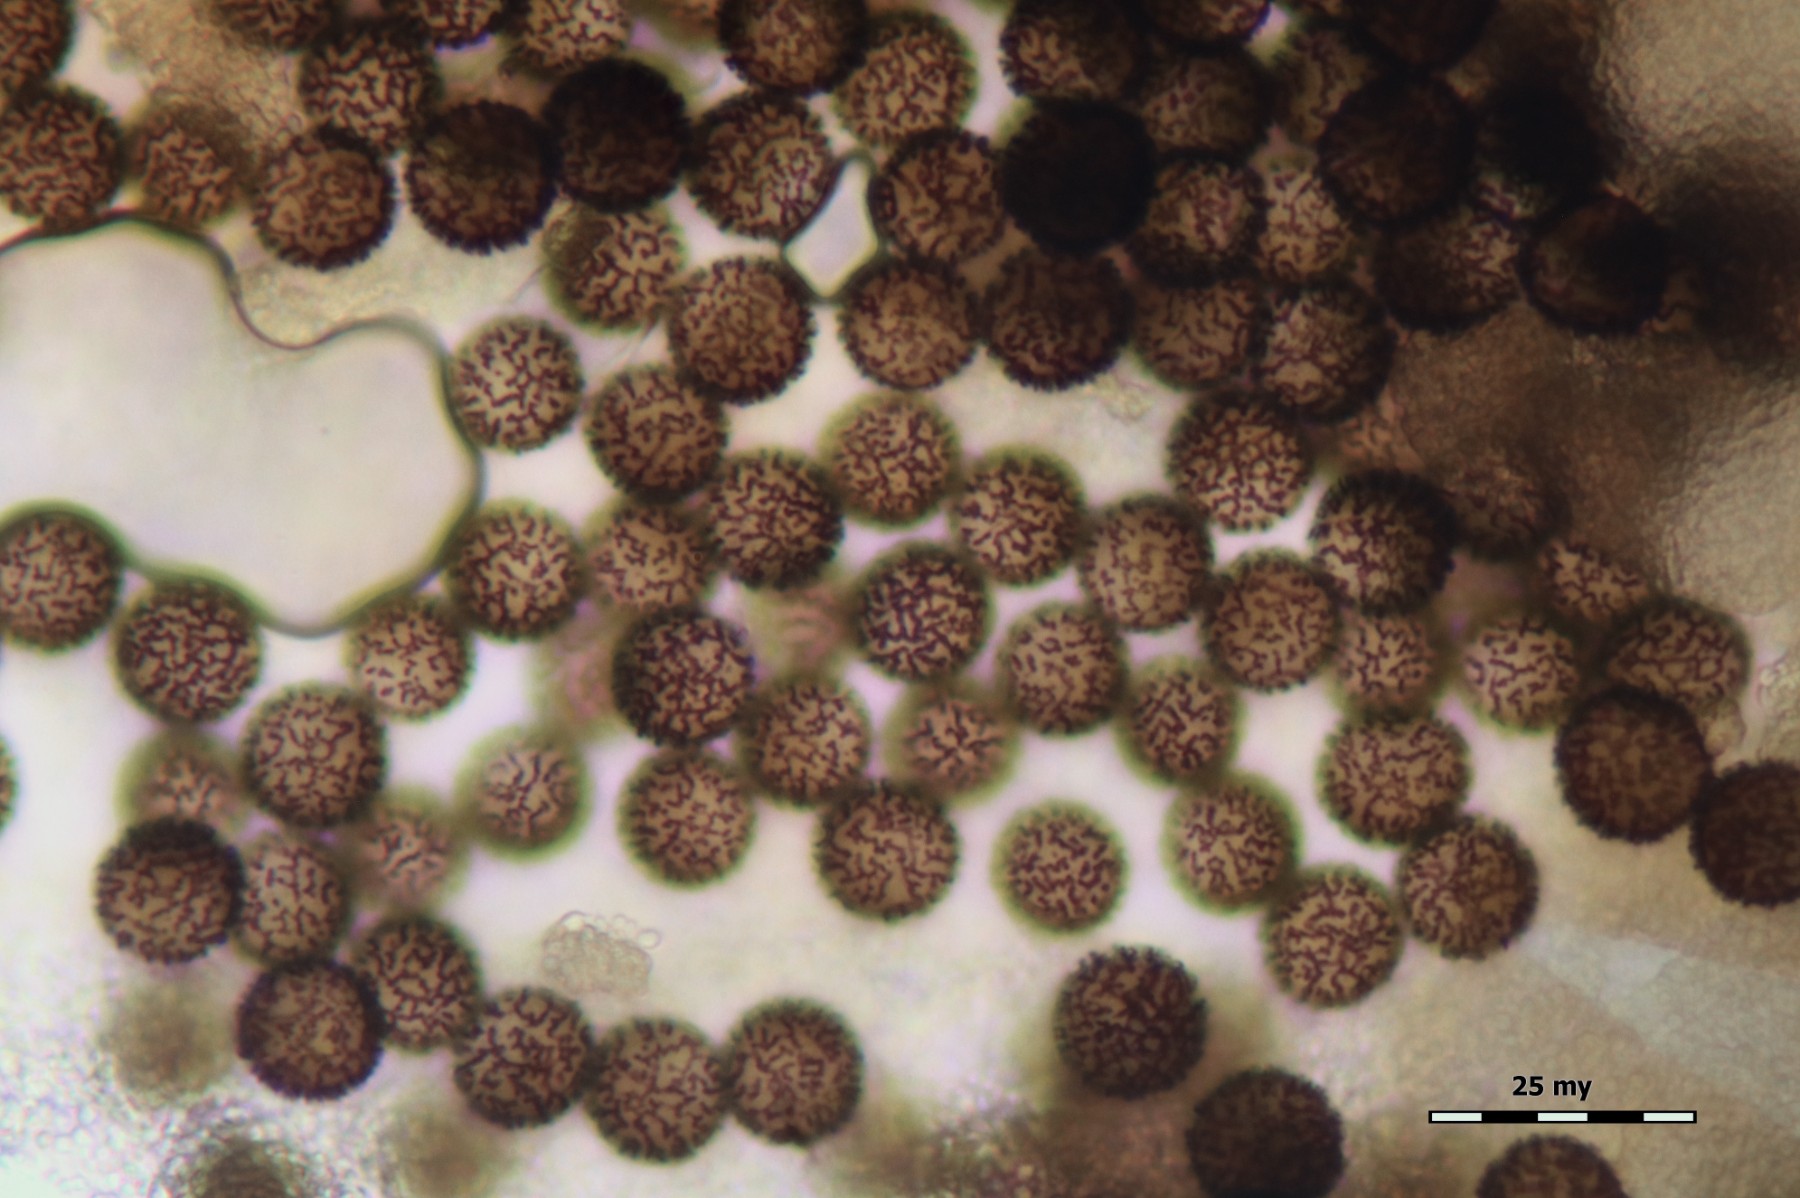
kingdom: Protozoa
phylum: Mycetozoa
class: Myxomycetes
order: Physarales
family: Physaraceae
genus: Badhamia
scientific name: Badhamia lilacina
